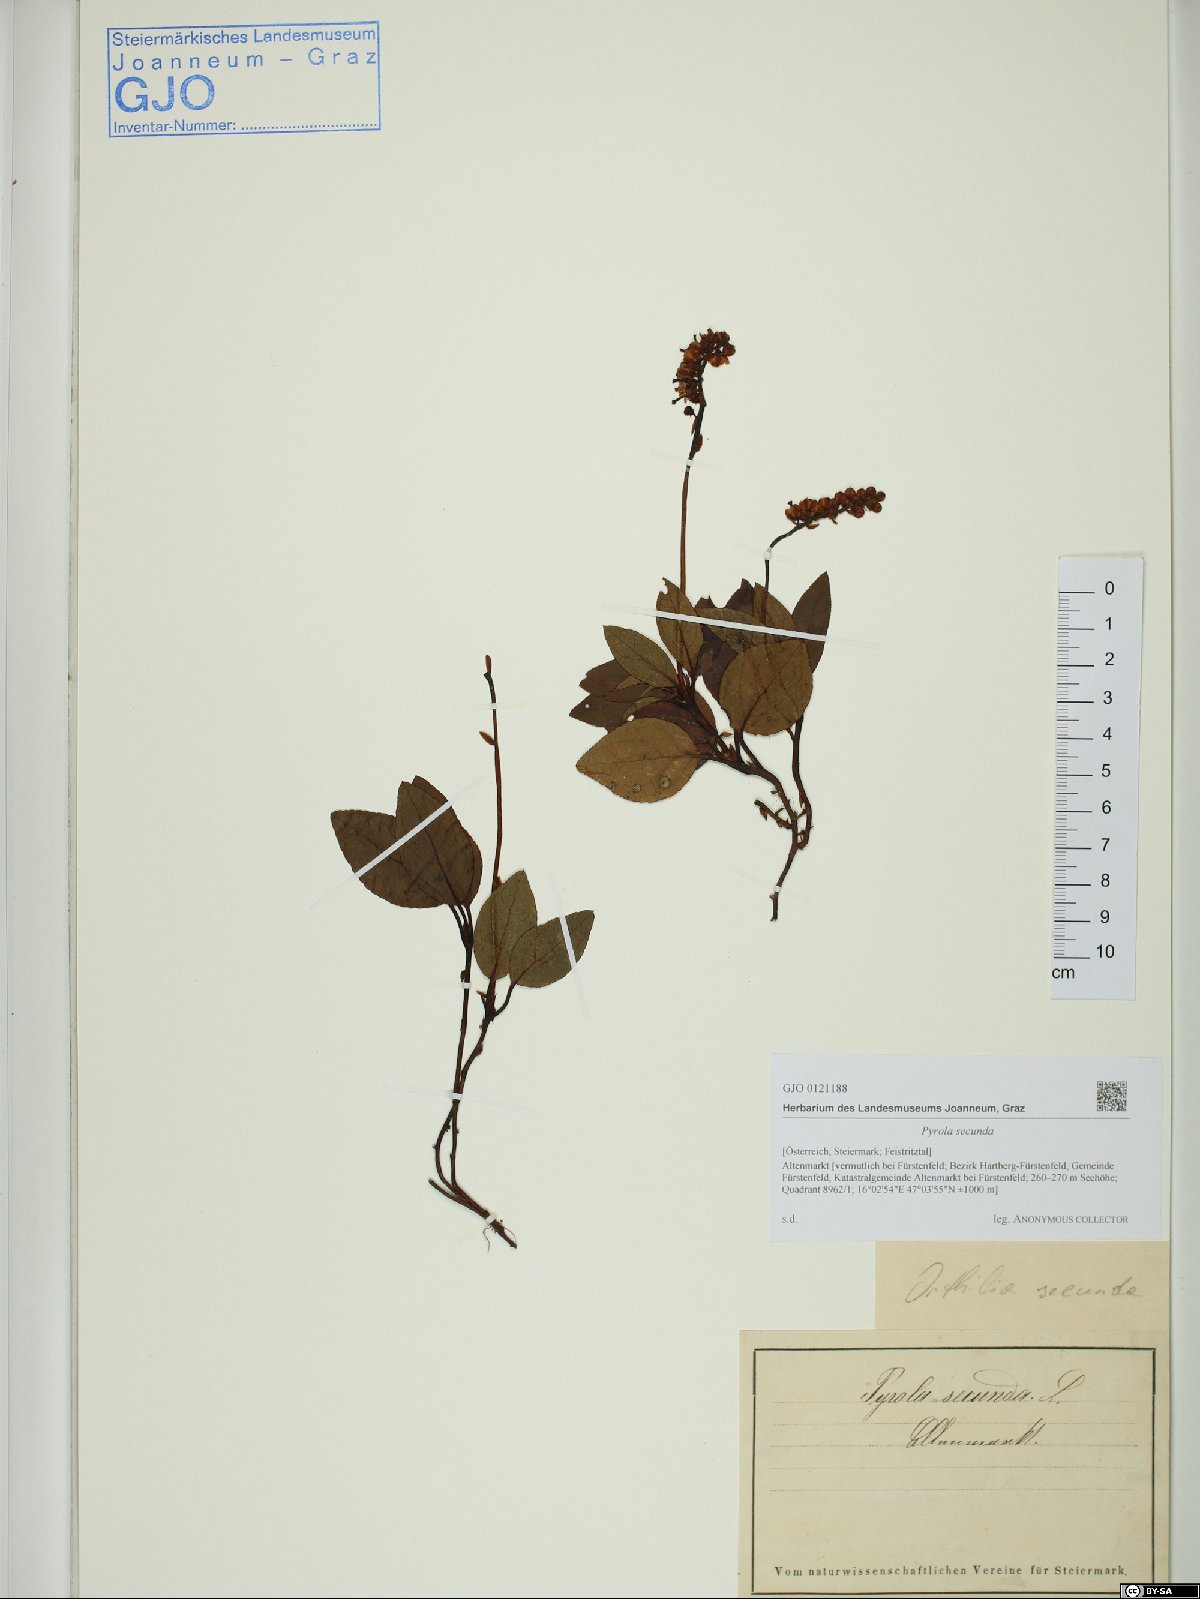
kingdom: Plantae
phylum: Tracheophyta
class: Magnoliopsida
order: Ericales
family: Ericaceae
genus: Orthilia
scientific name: Orthilia secunda
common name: One-sided orthilia
